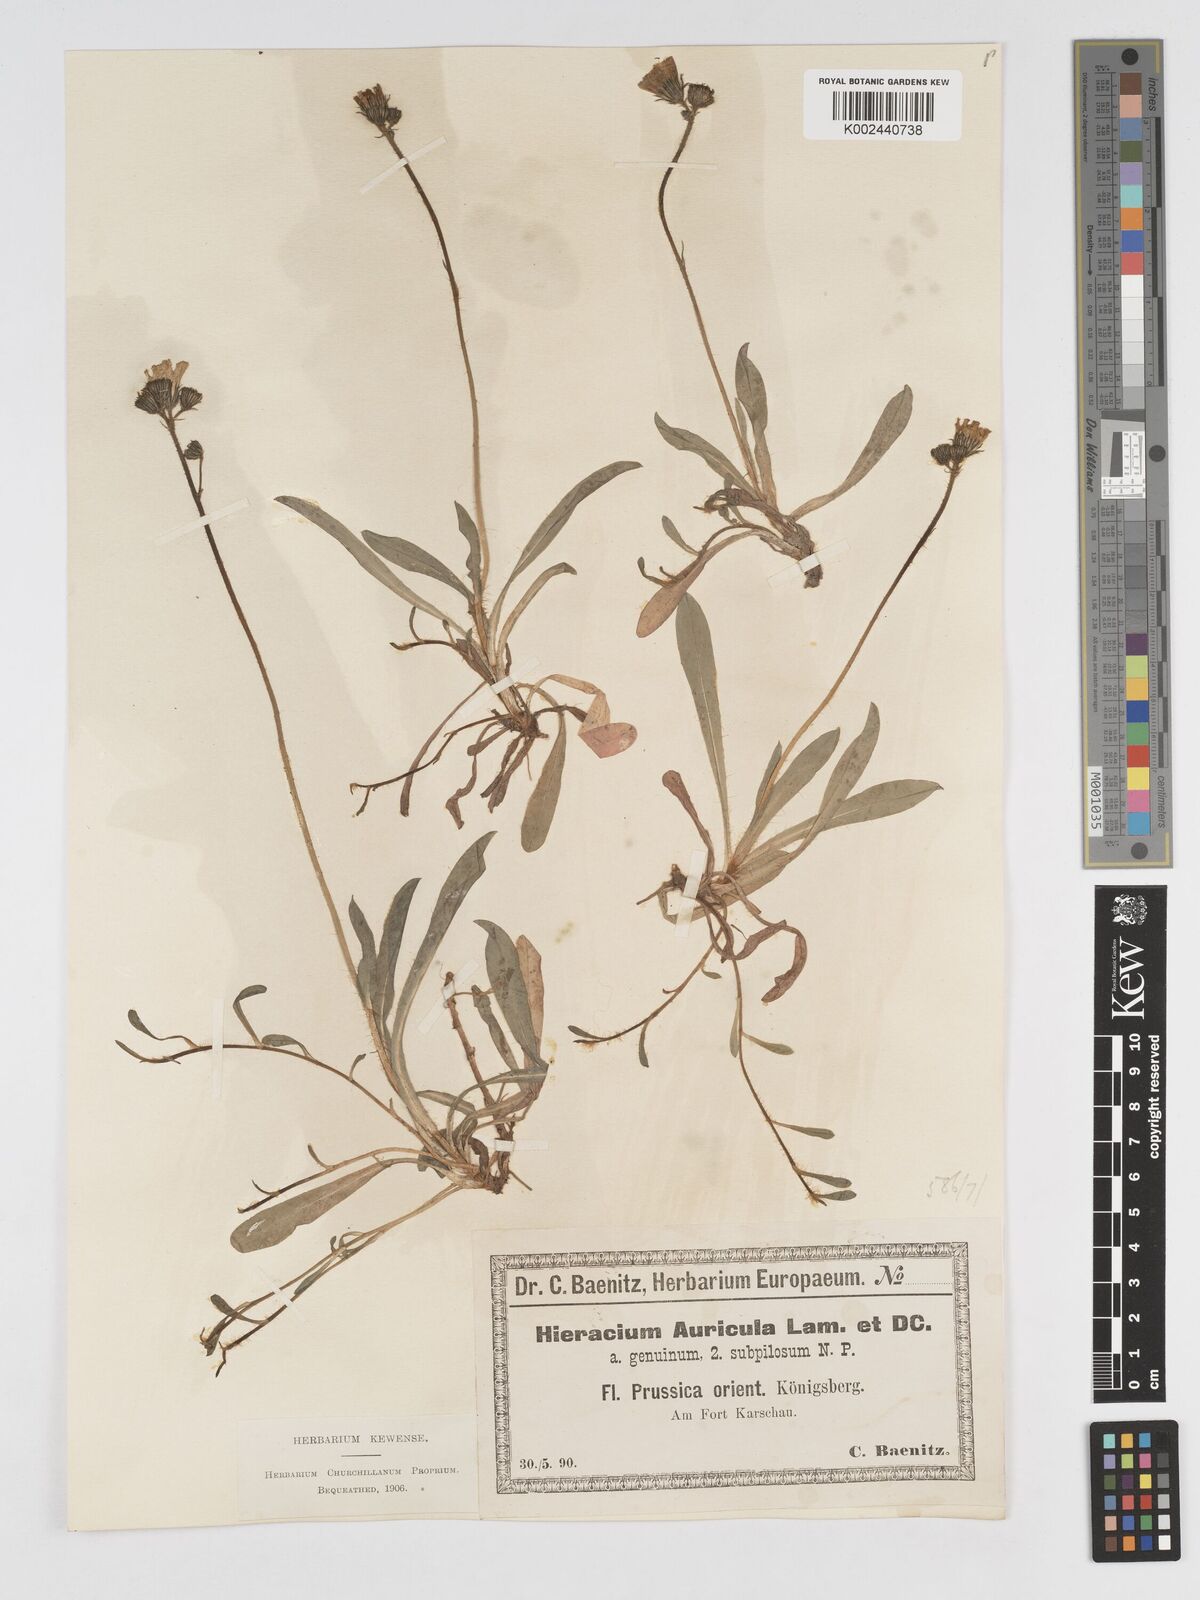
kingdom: Plantae
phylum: Tracheophyta
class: Magnoliopsida
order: Asterales
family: Asteraceae
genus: Pilosella
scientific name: Pilosella floribunda
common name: Glaucous hawkweed
